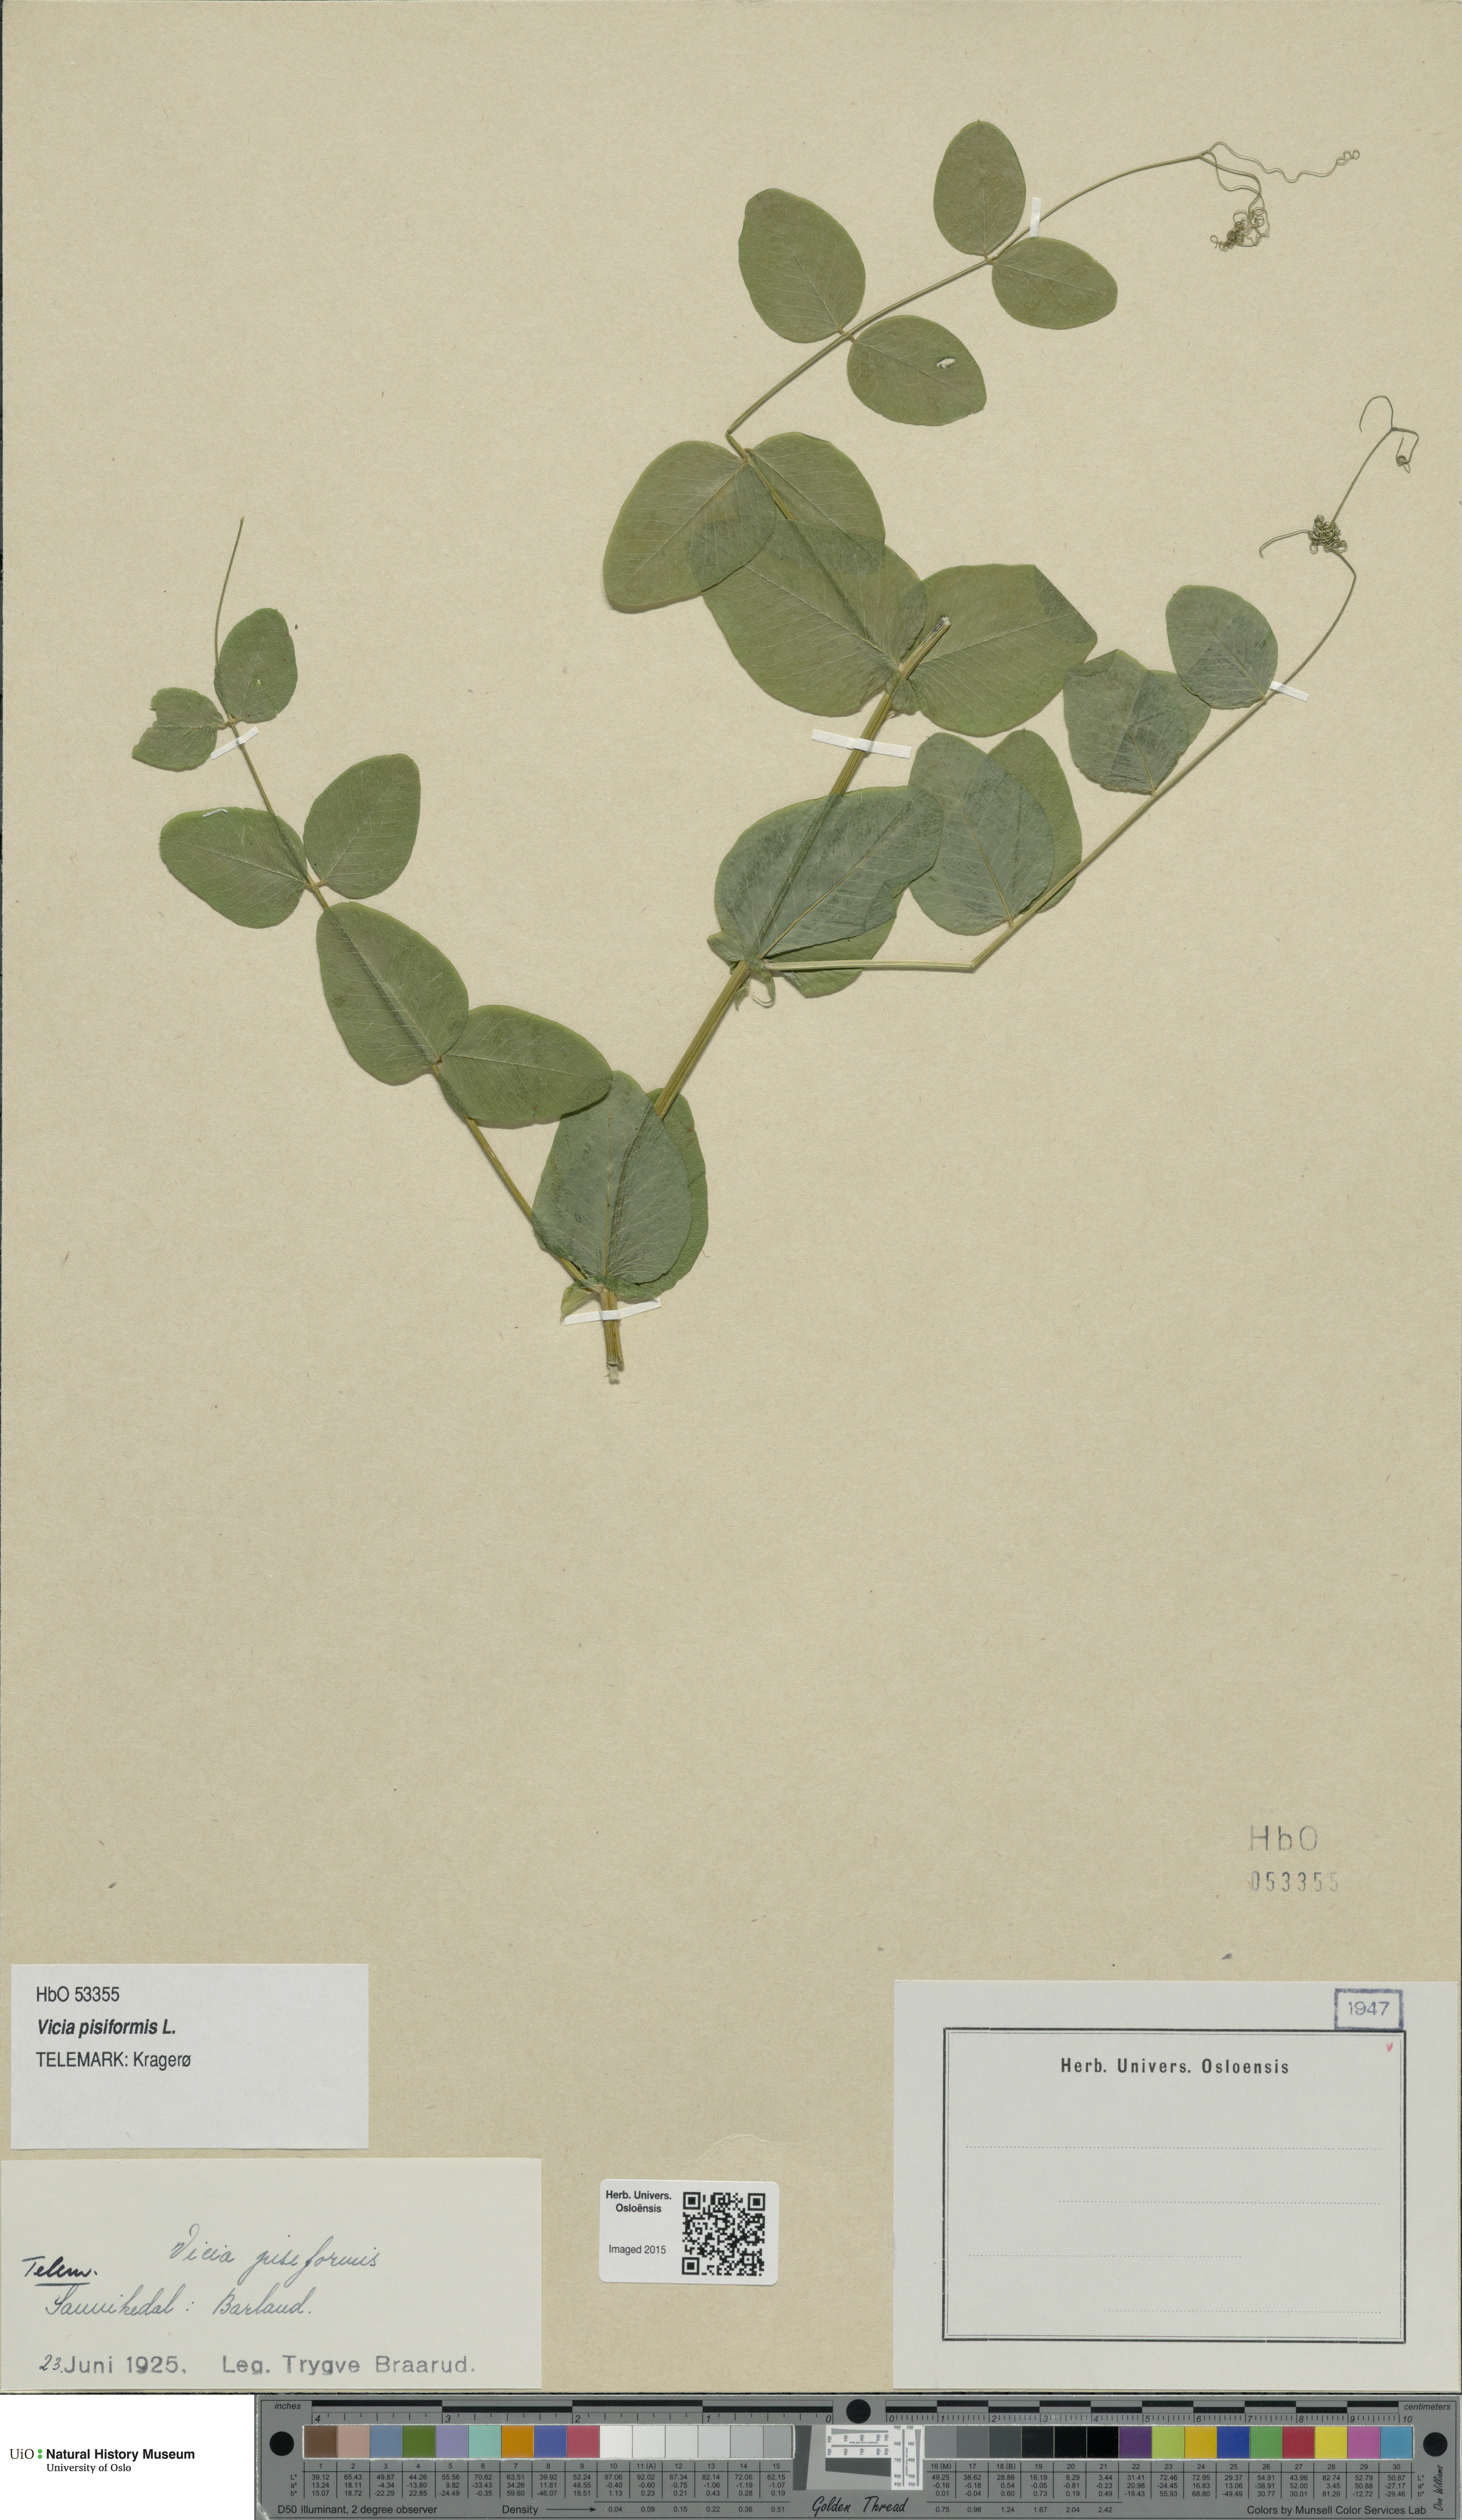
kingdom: Plantae
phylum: Tracheophyta
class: Magnoliopsida
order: Fabales
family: Fabaceae
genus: Vicia
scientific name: Vicia pisiformis
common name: Pale-flower vetch
